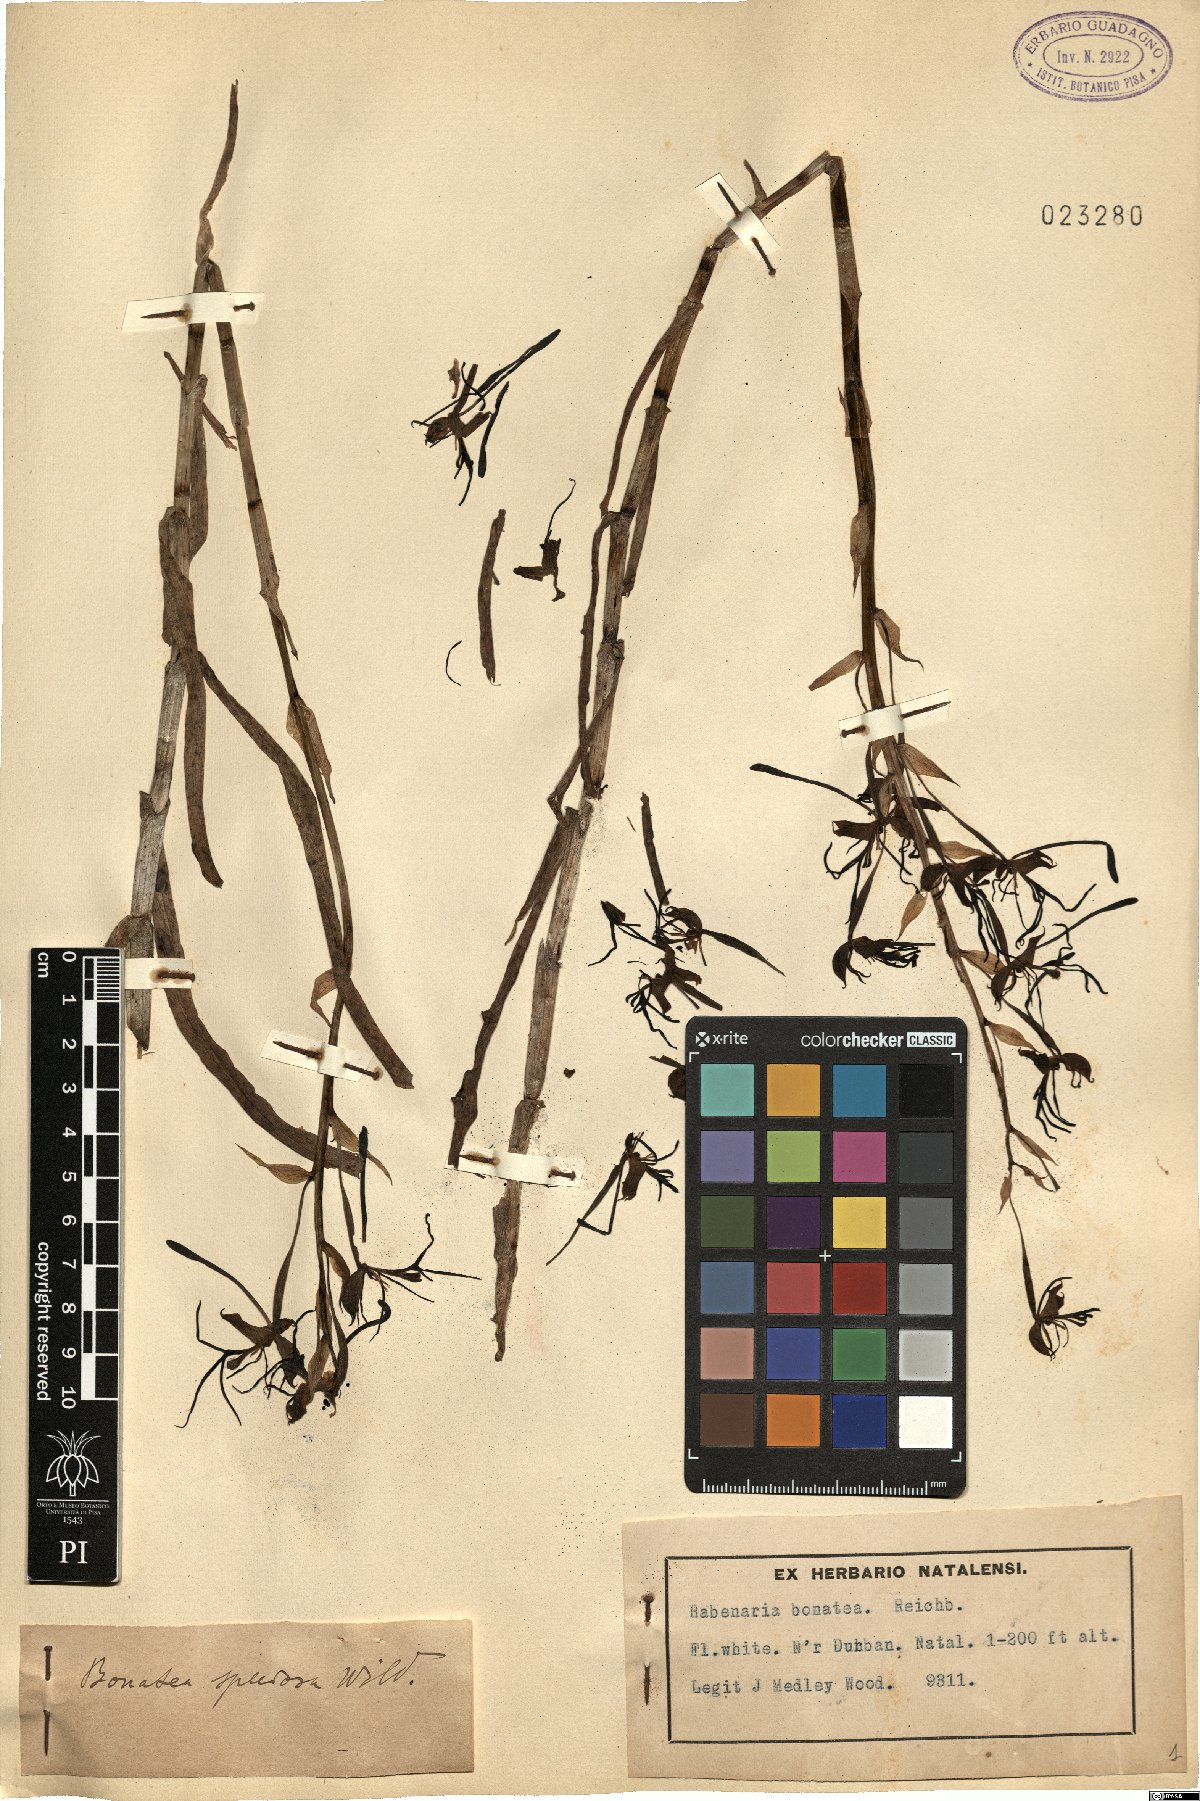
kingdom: Plantae
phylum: Tracheophyta
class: Liliopsida
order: Asparagales
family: Orchidaceae
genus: Bonatea
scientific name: Bonatea speciosa
